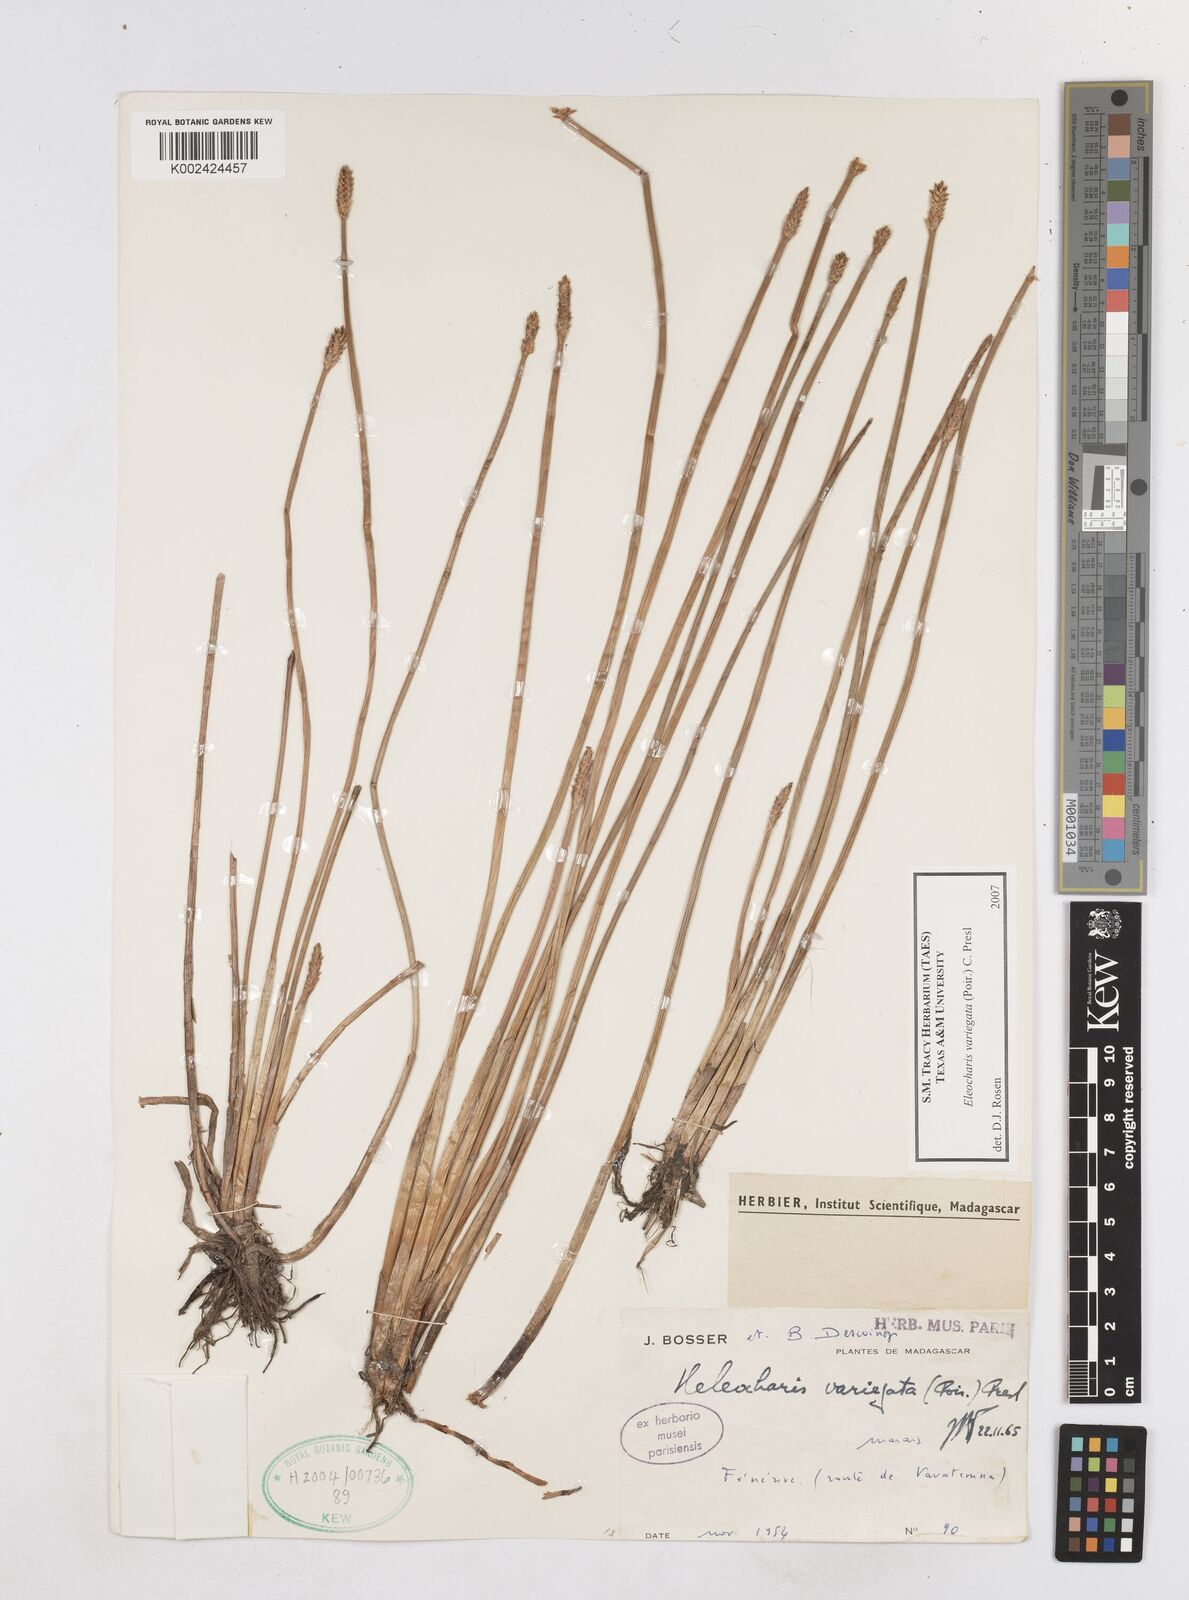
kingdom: Plantae
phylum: Tracheophyta
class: Liliopsida
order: Poales
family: Cyperaceae
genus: Eleocharis
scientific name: Eleocharis variegata
